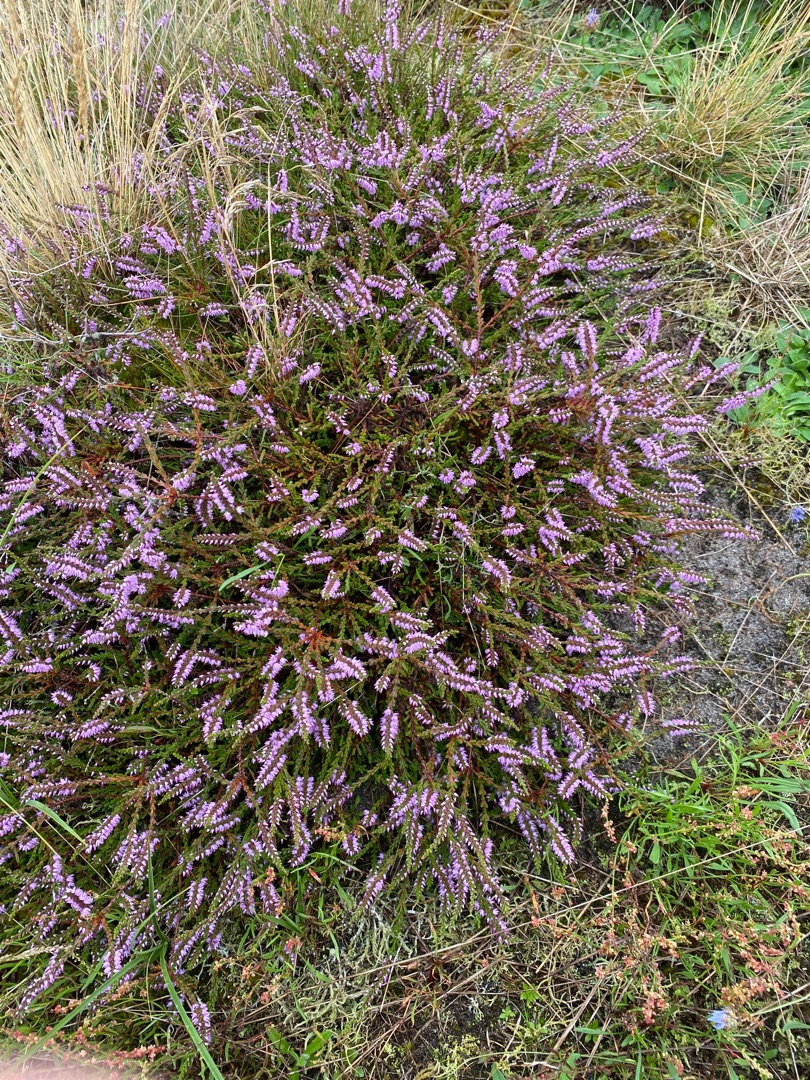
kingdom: Plantae
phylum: Tracheophyta
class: Magnoliopsida
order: Ericales
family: Ericaceae
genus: Calluna
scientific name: Calluna vulgaris
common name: Hedelyng
